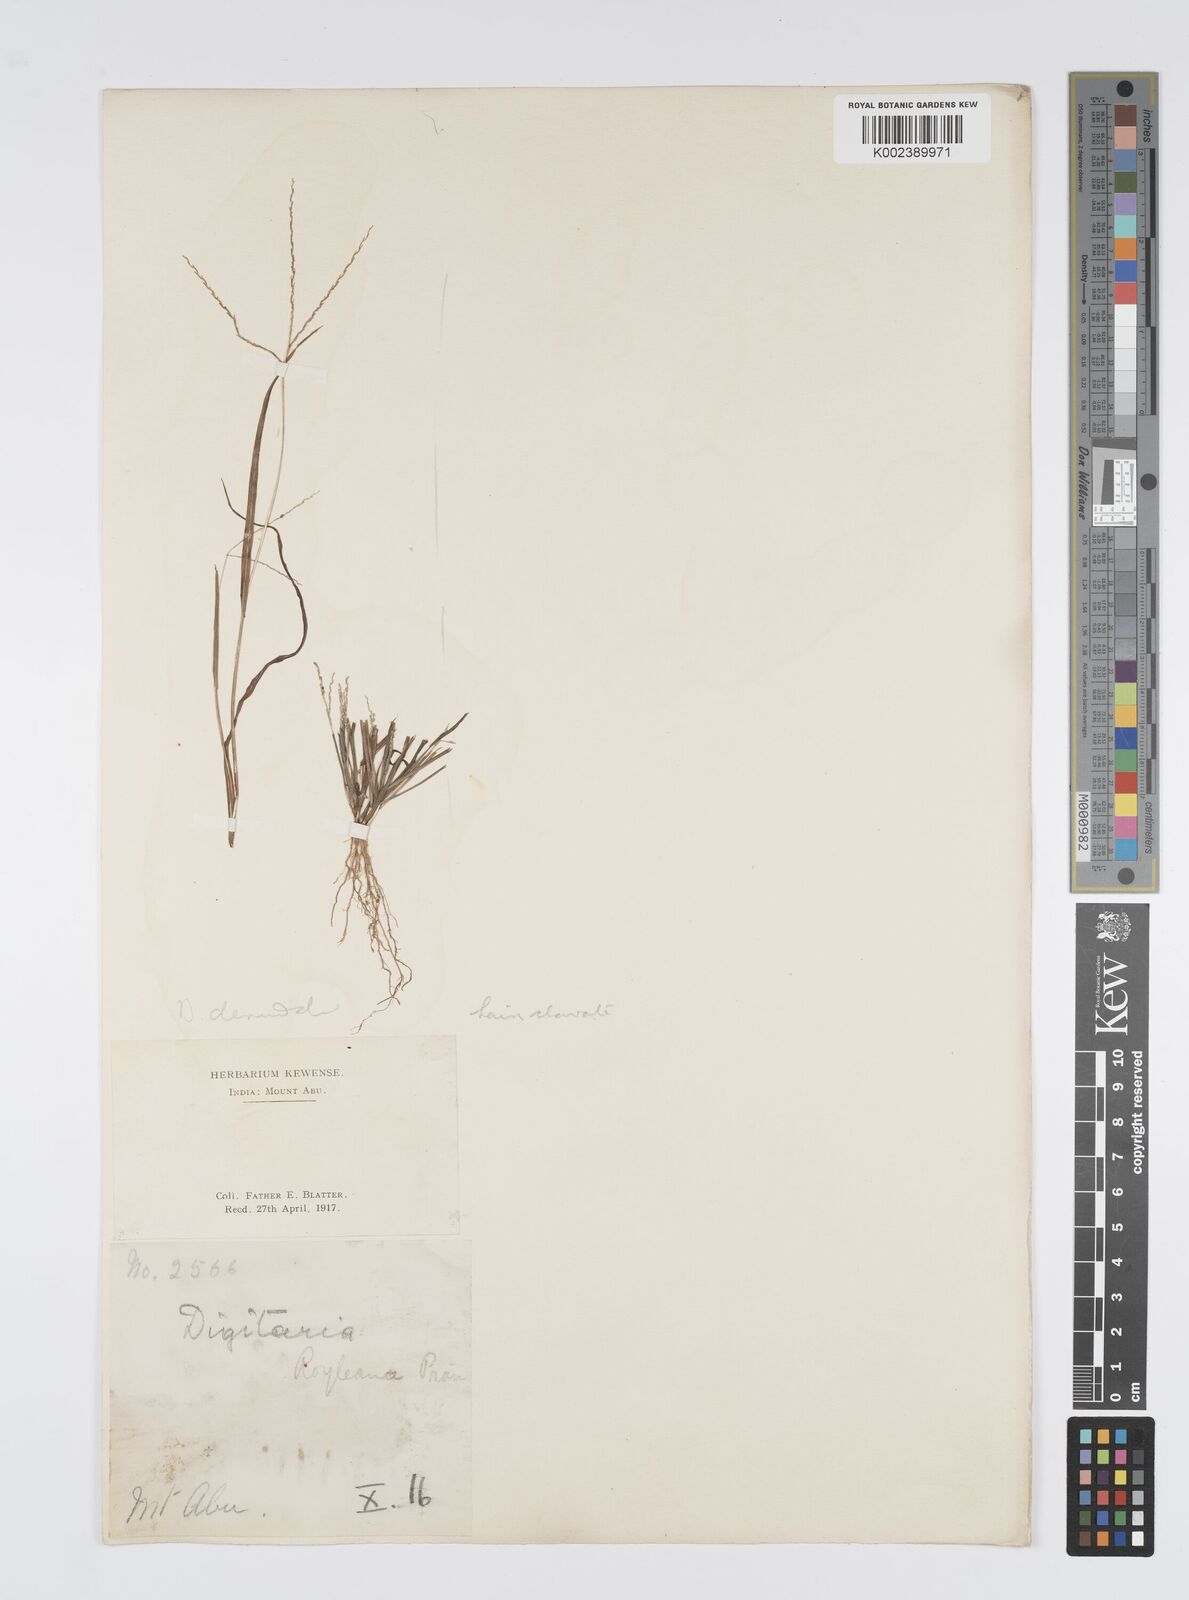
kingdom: Plantae
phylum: Tracheophyta
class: Liliopsida
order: Poales
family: Poaceae
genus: Digitaria
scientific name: Digitaria stricta
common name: Crabgrass
